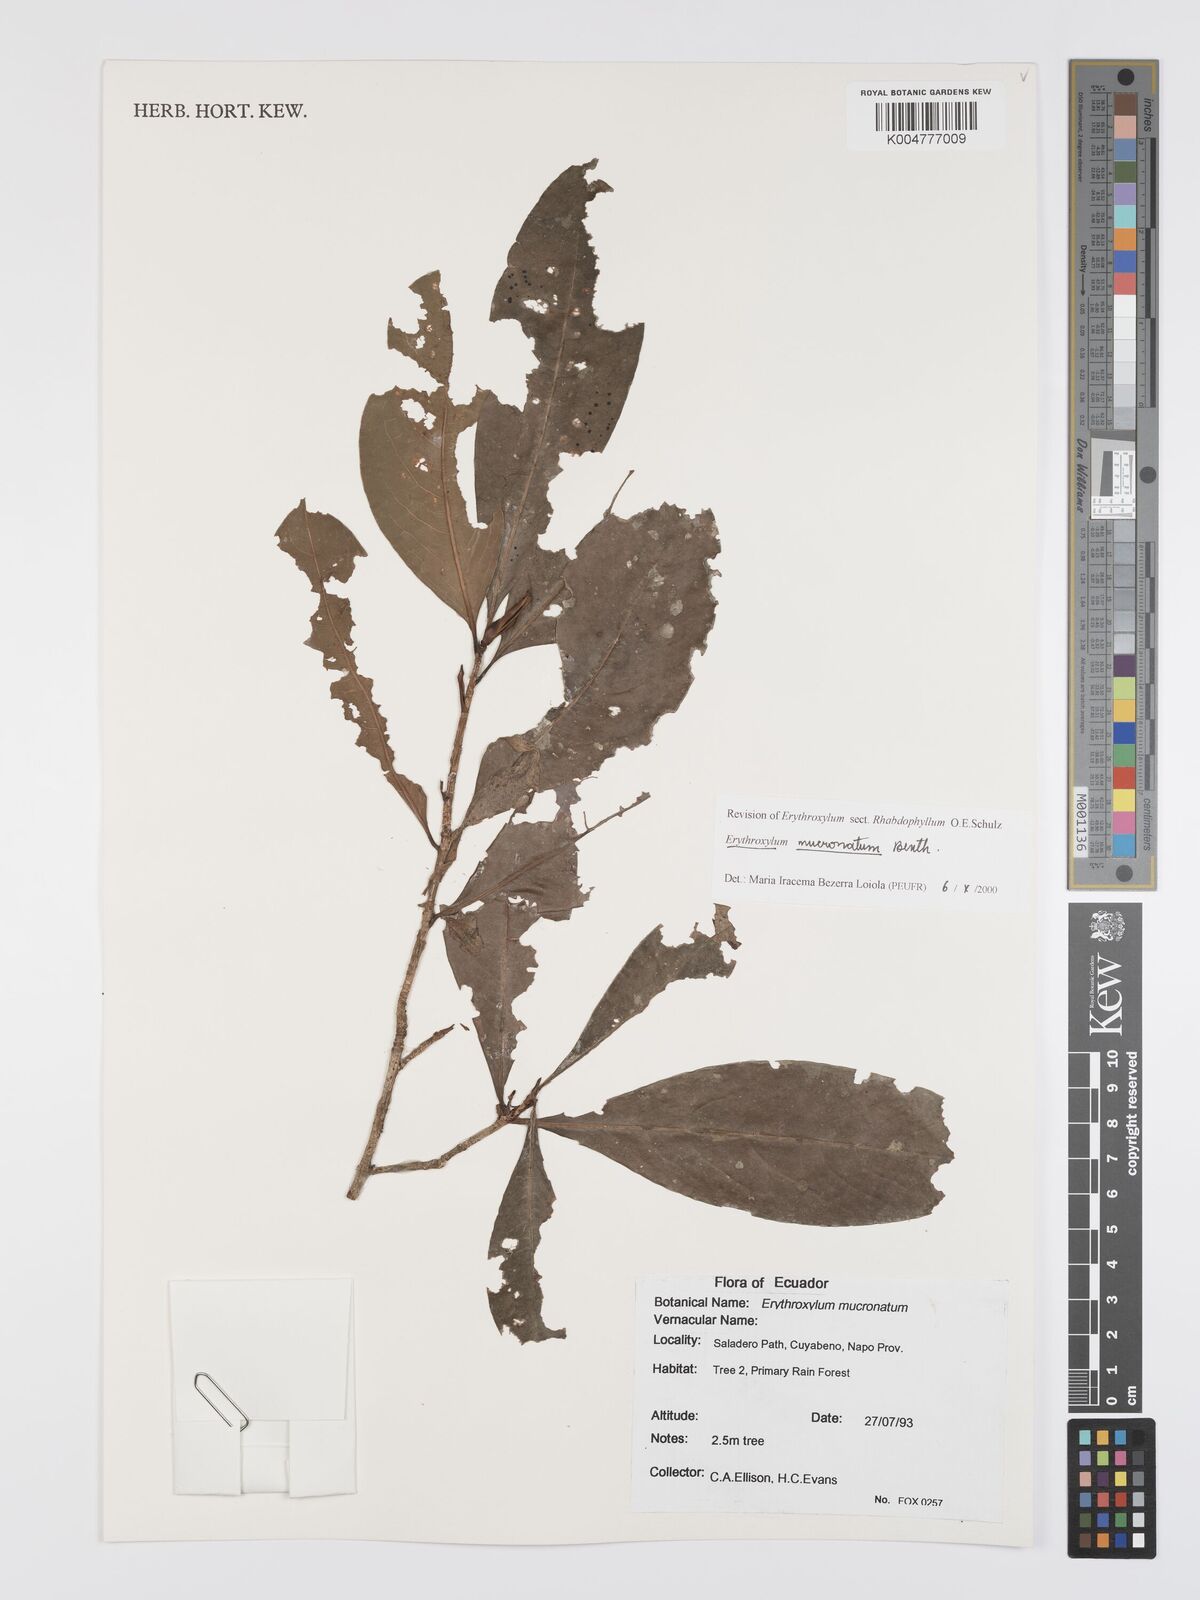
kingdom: Plantae
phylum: Tracheophyta
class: Magnoliopsida
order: Malpighiales
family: Erythroxylaceae
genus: Erythroxylum
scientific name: Erythroxylum mucronatum
